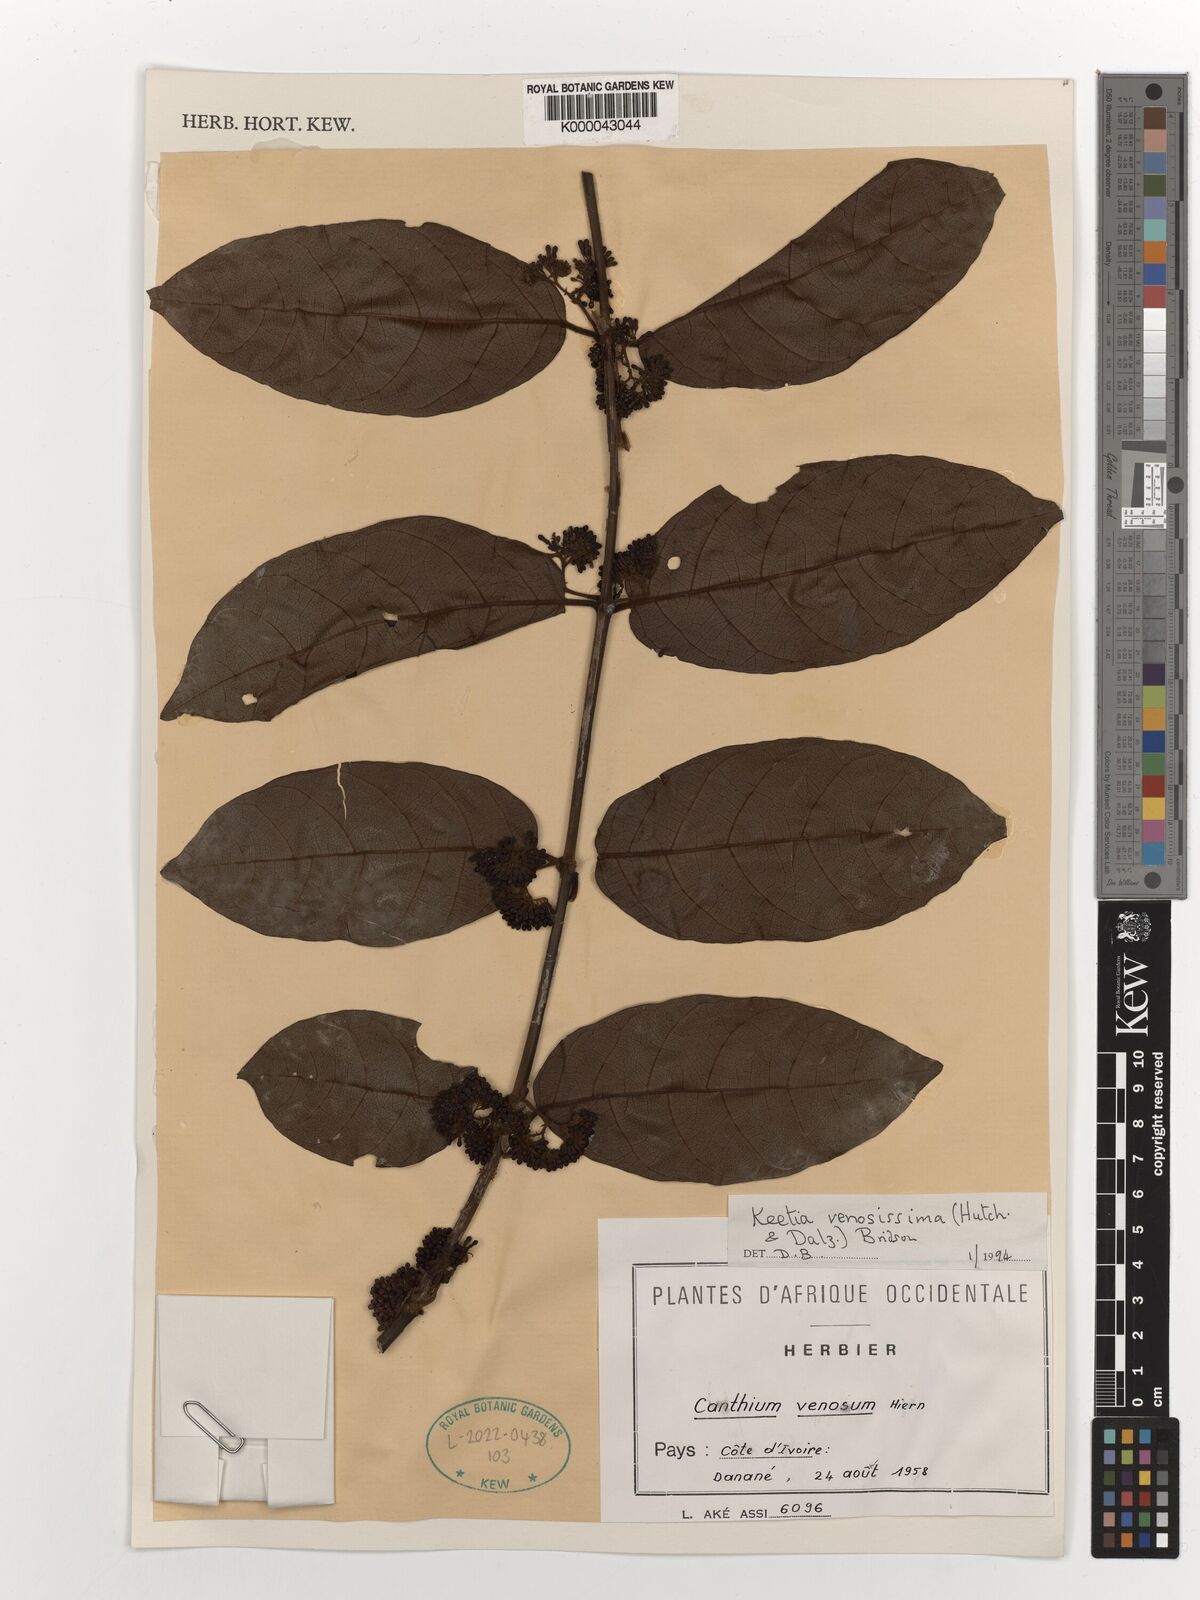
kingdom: Plantae
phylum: Tracheophyta
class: Magnoliopsida
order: Gentianales
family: Rubiaceae
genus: Keetia
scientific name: Keetia venosissima
